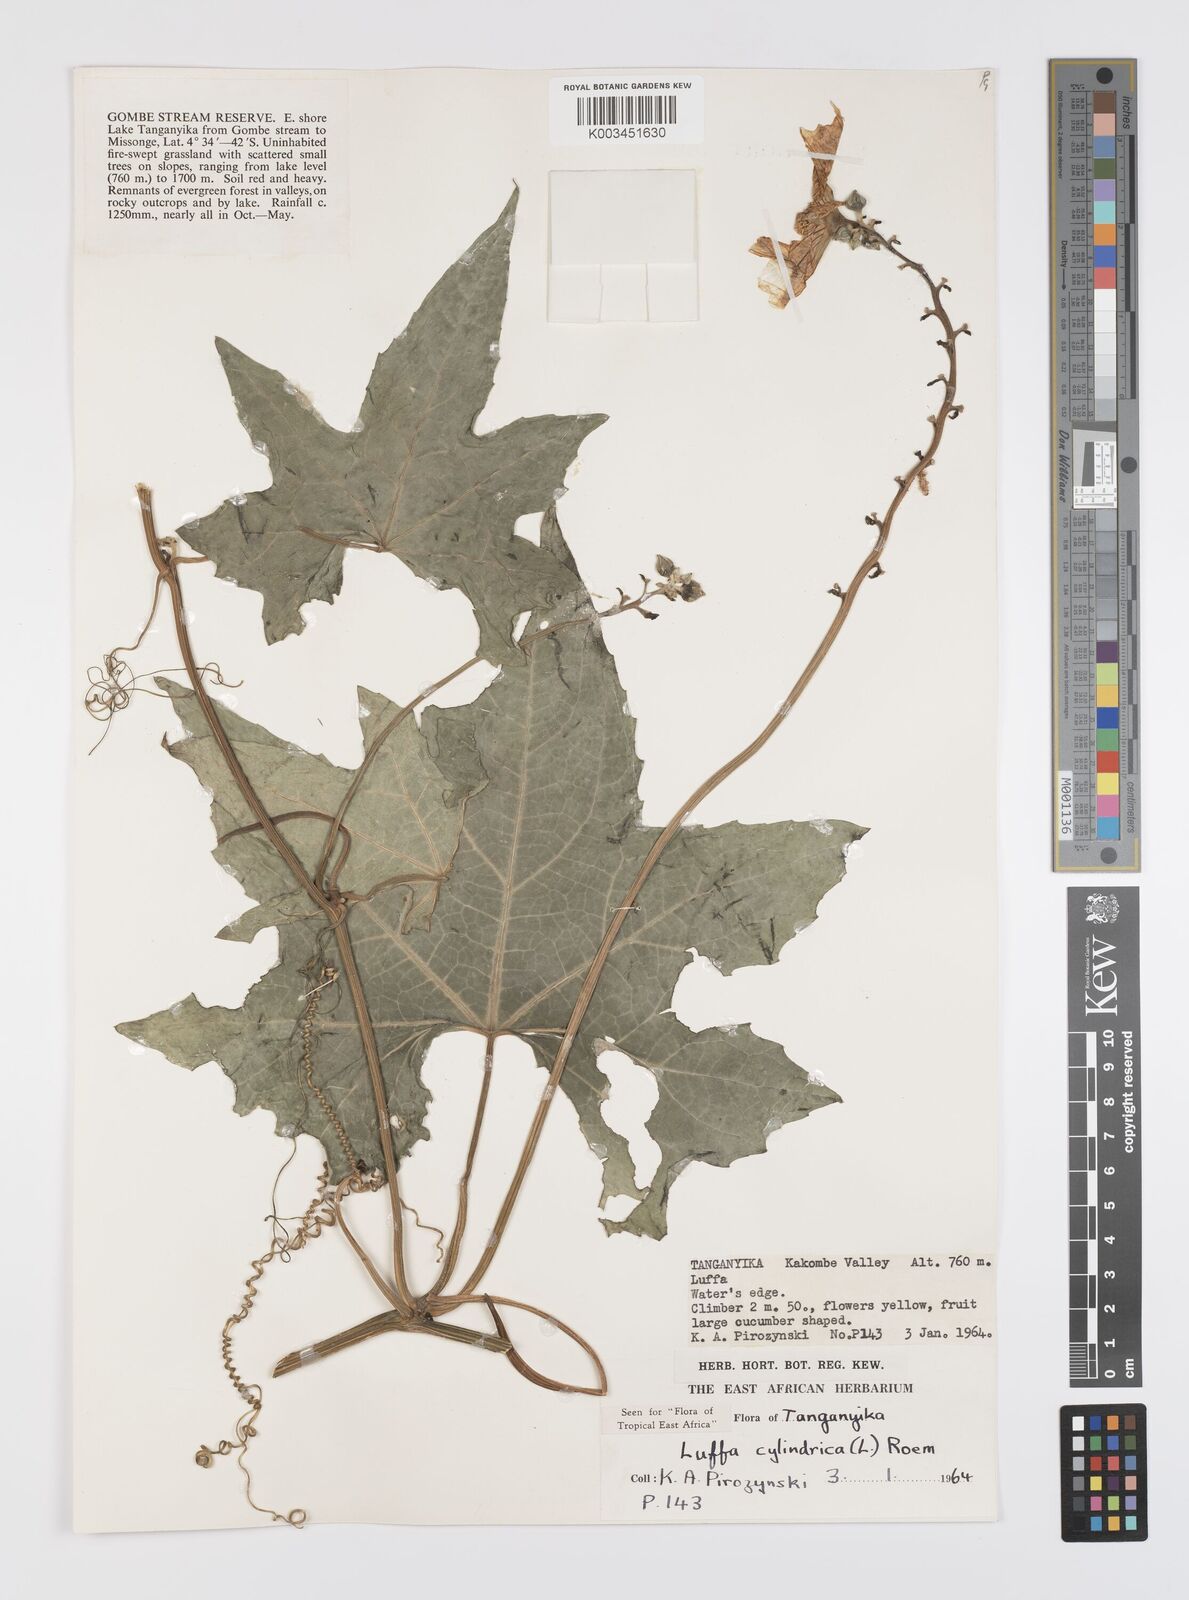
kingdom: Plantae
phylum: Tracheophyta
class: Magnoliopsida
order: Cucurbitales
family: Cucurbitaceae
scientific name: Cucurbitaceae
